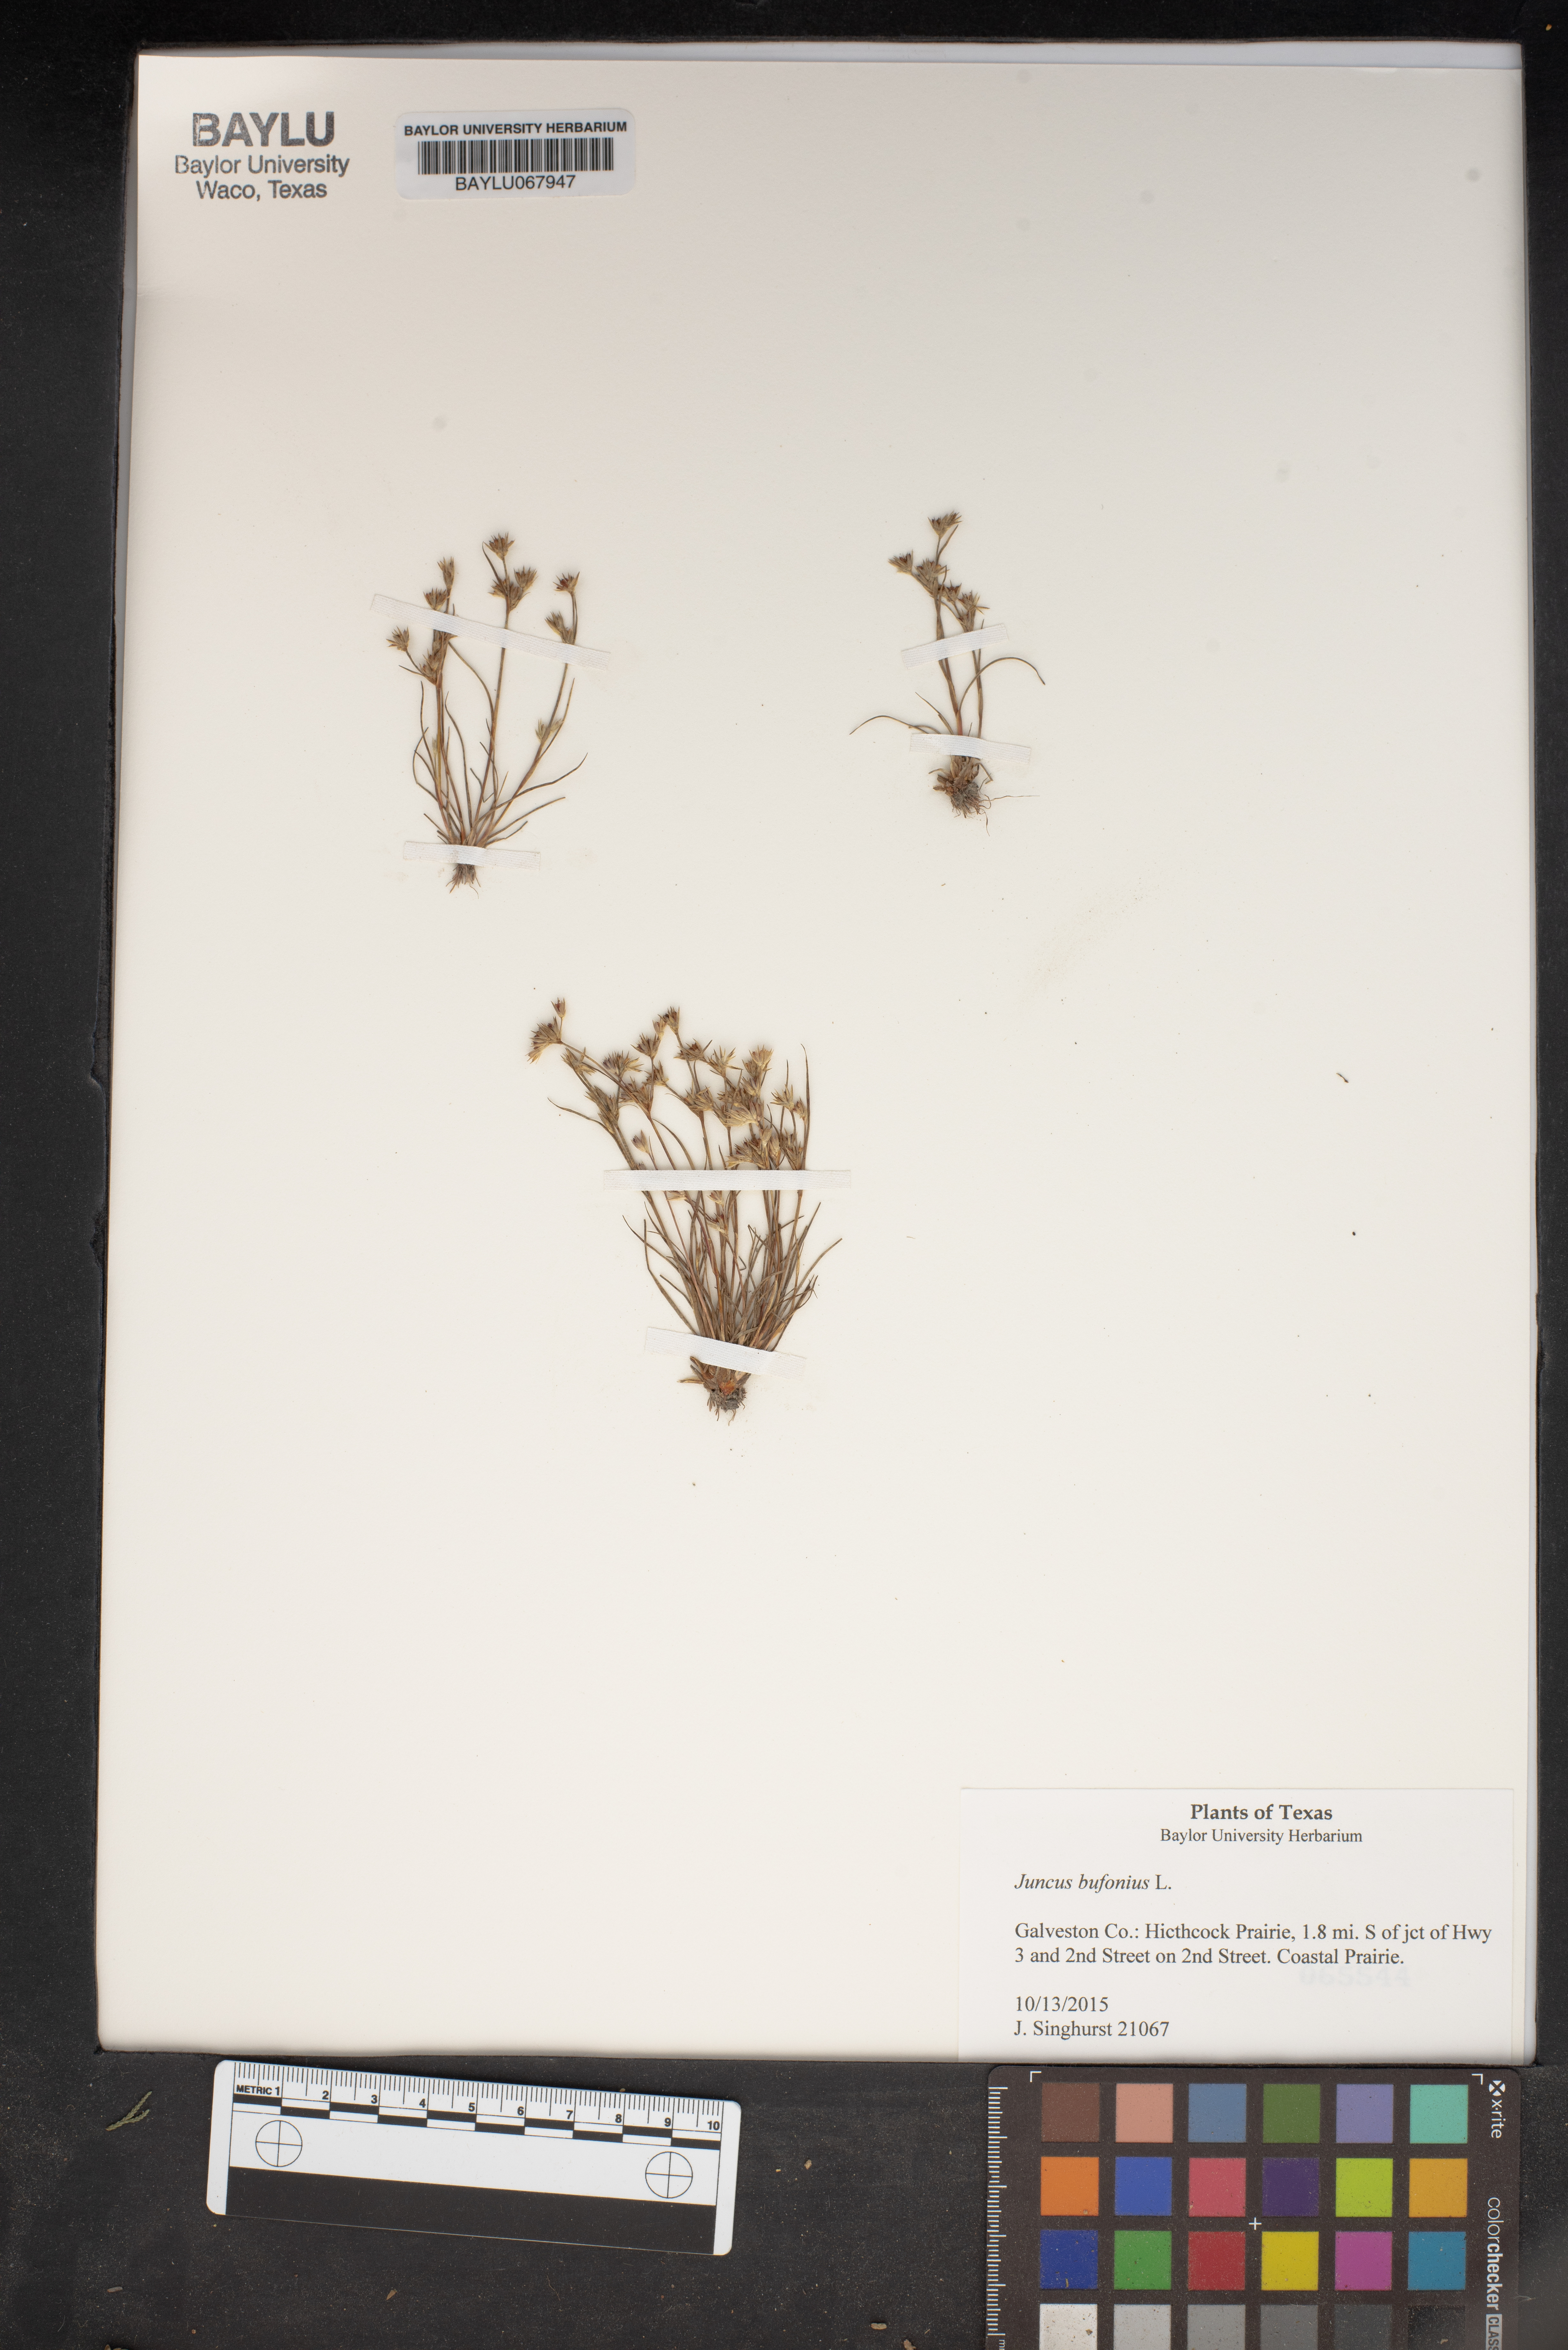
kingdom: Plantae
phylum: Tracheophyta
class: Liliopsida
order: Poales
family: Juncaceae
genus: Juncus
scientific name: Juncus bufonius
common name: Toad rush
